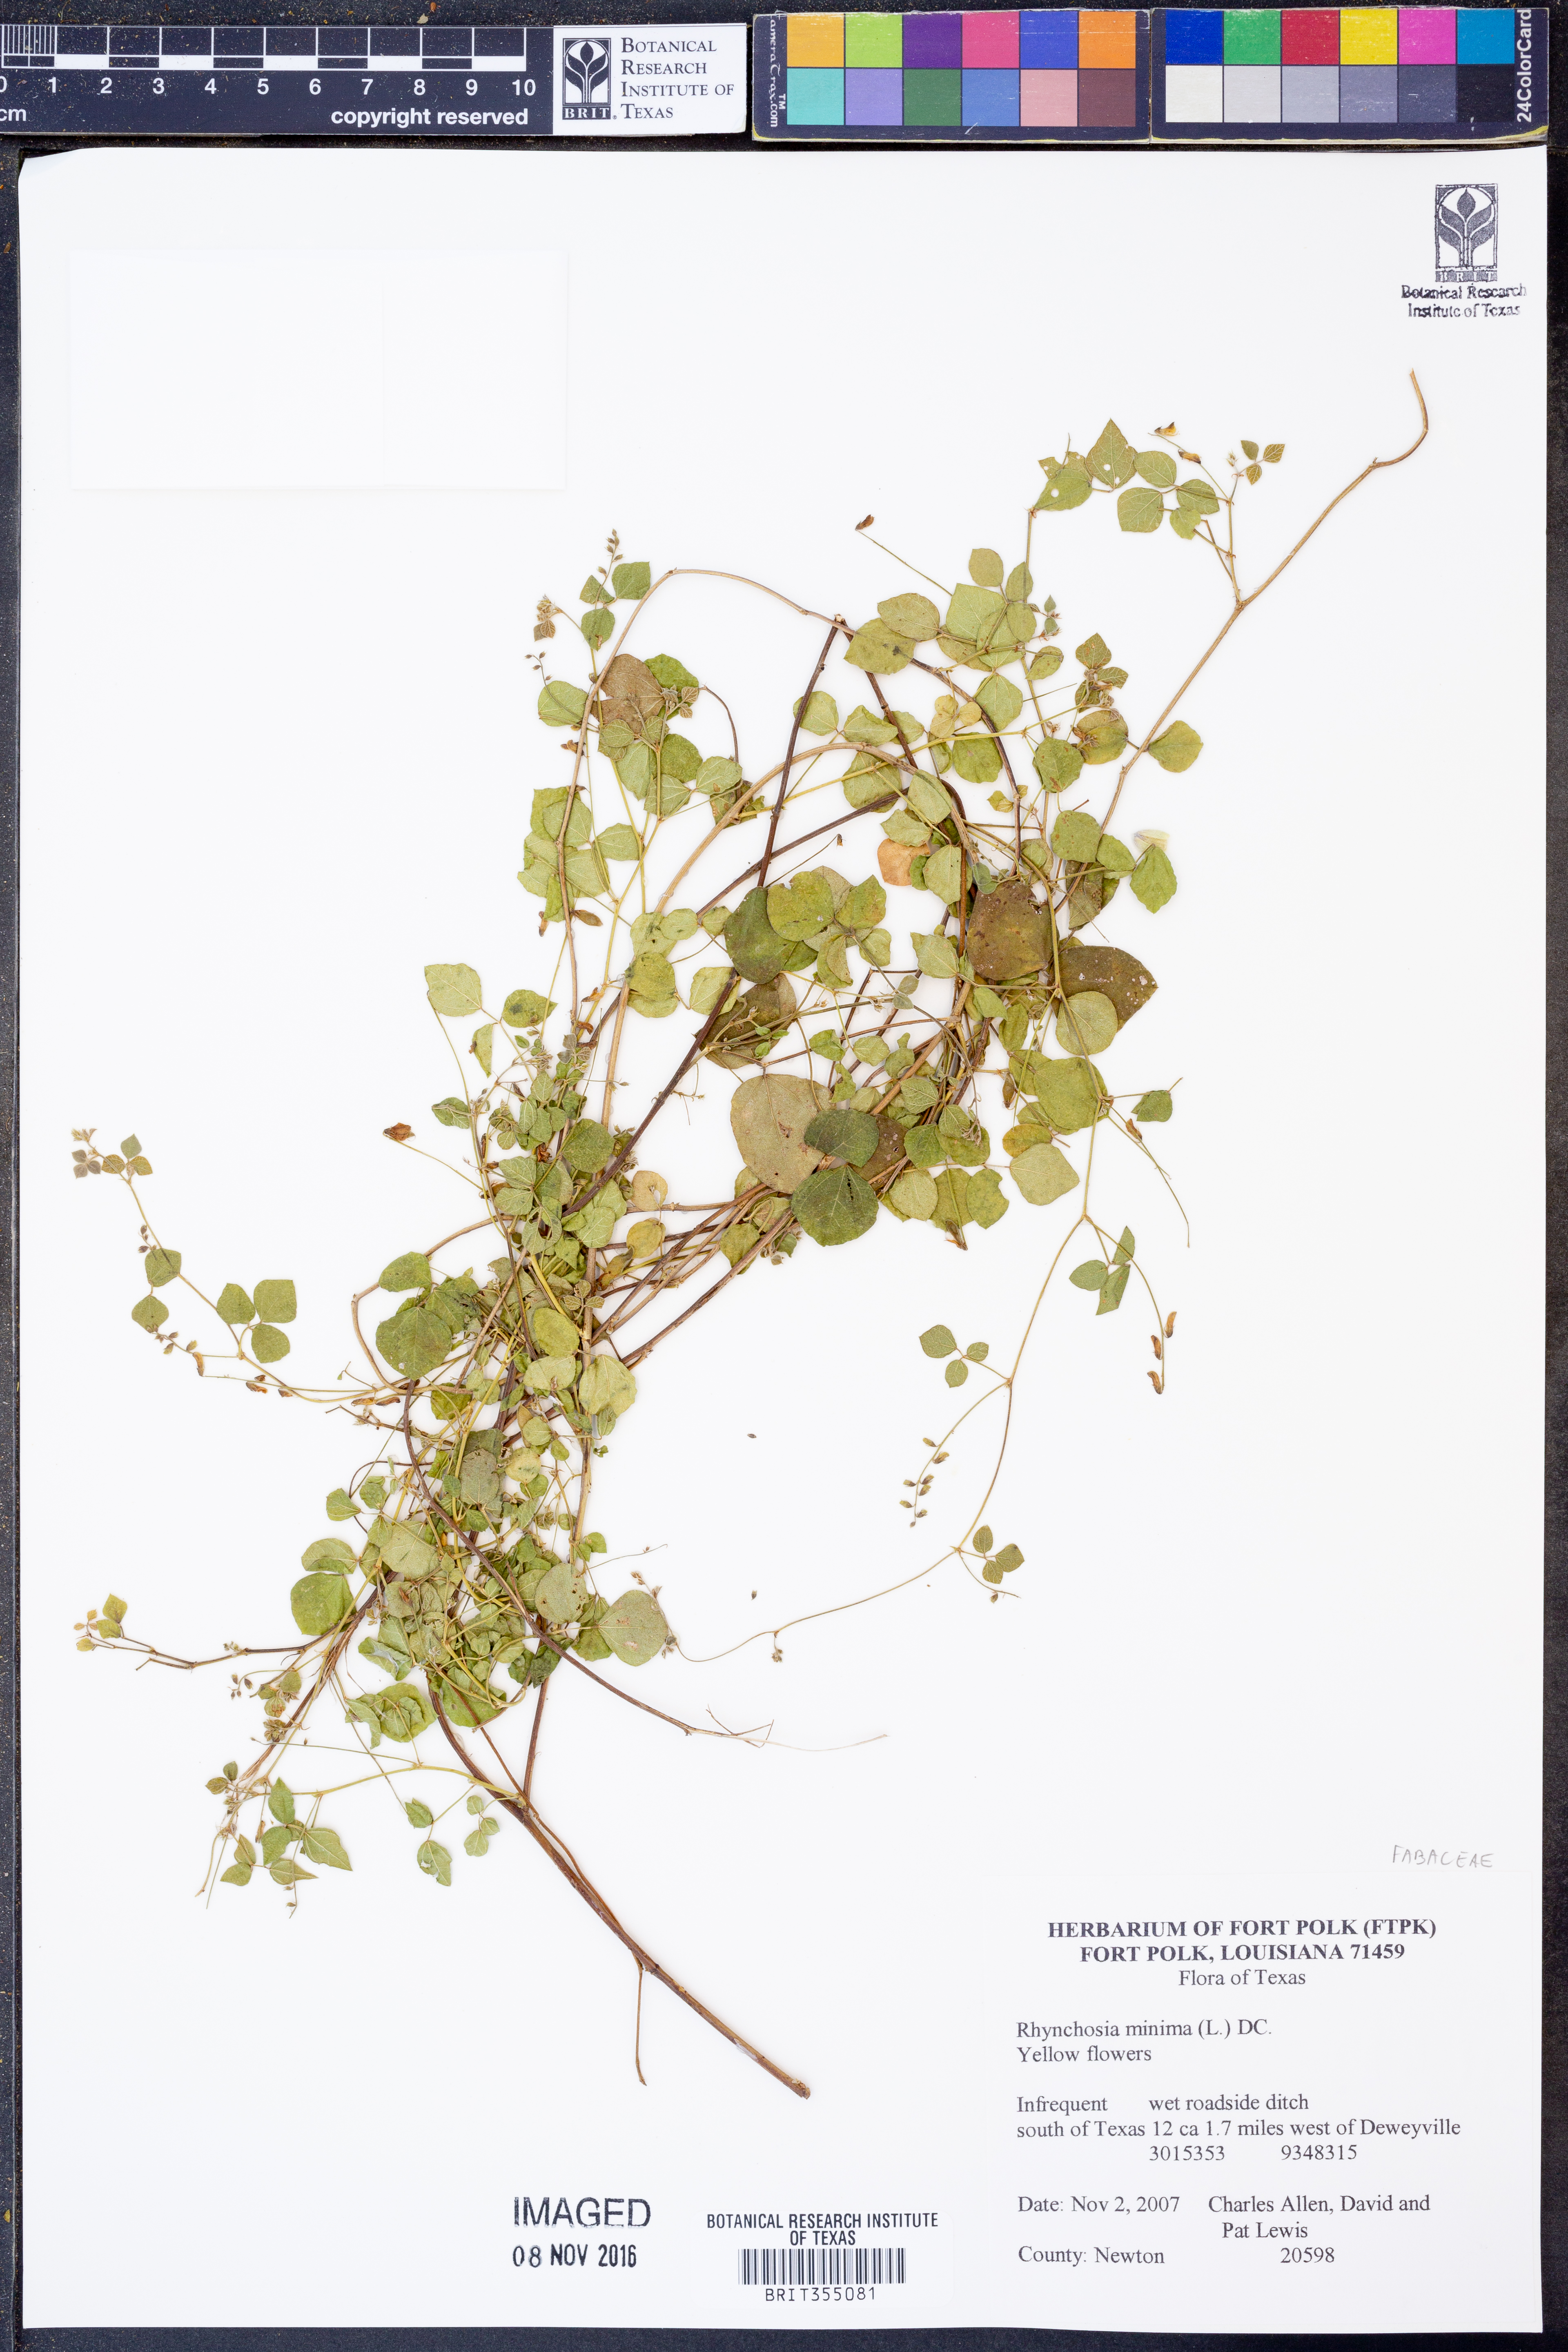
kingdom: Plantae
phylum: Tracheophyta
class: Magnoliopsida
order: Fabales
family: Fabaceae
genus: Rhynchosia
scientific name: Rhynchosia minima
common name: Least snoutbean
